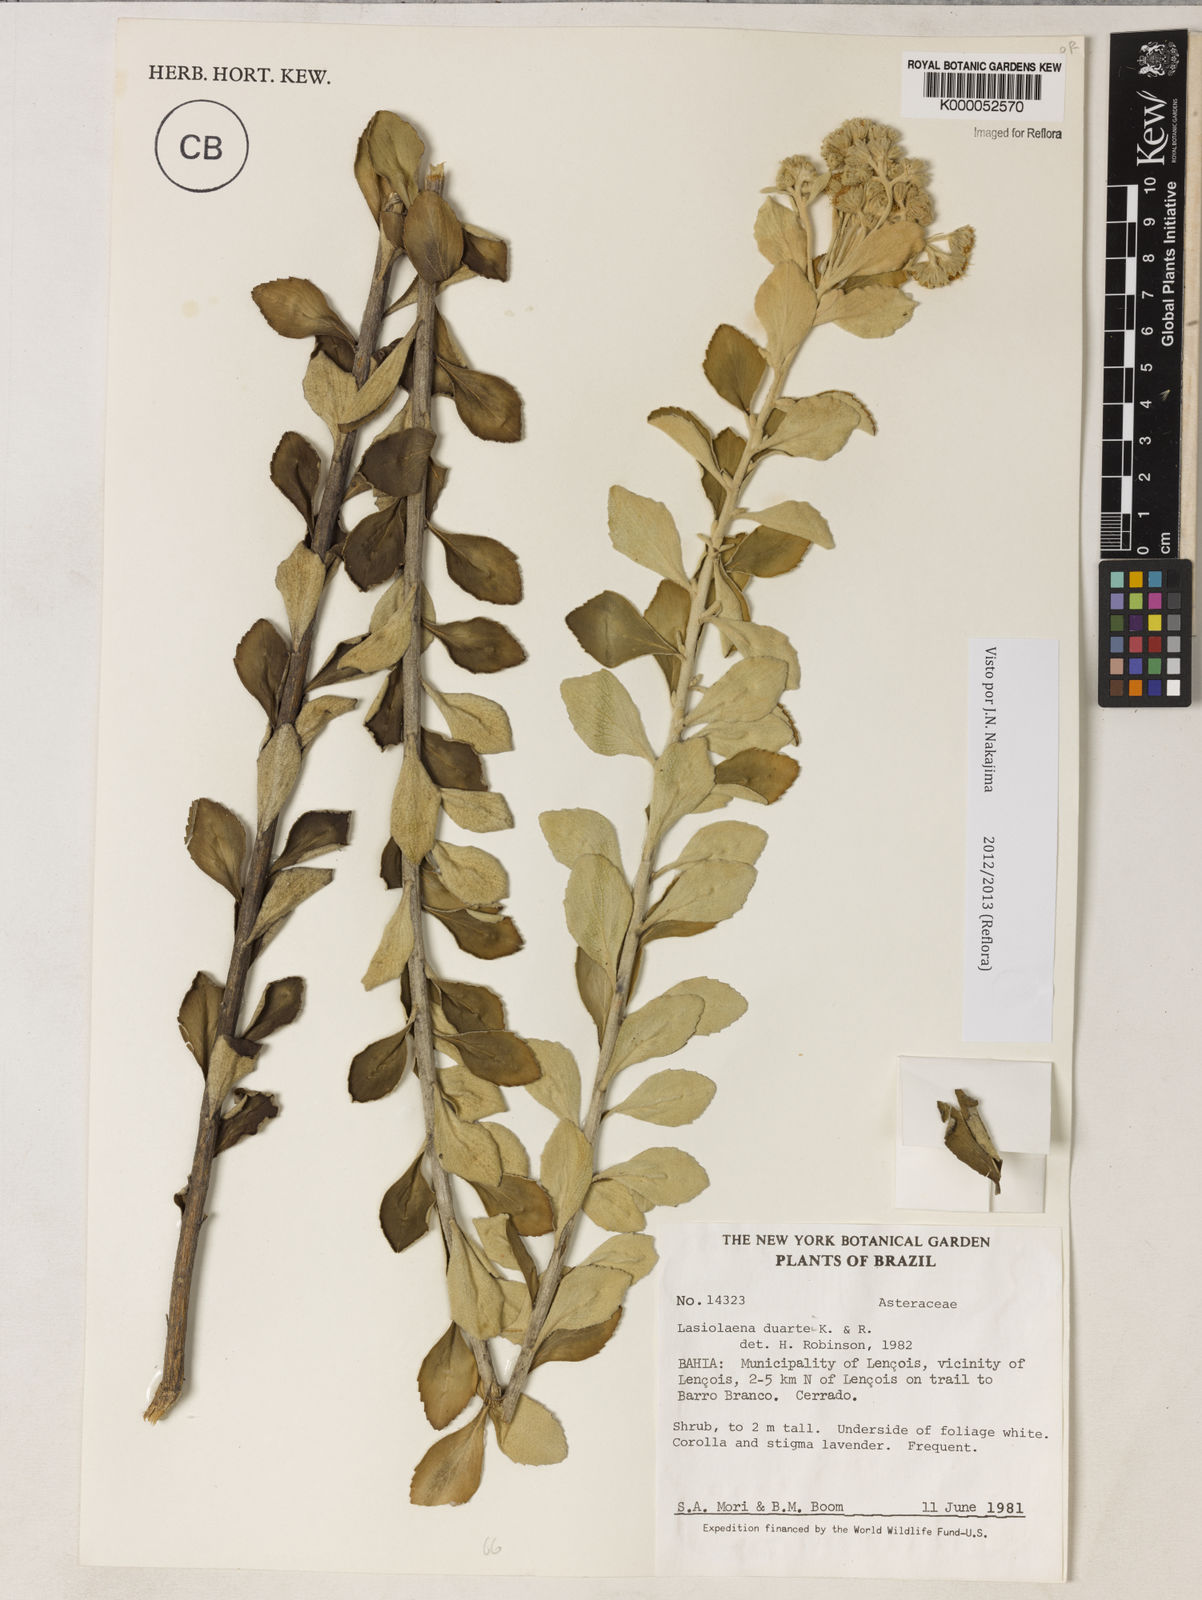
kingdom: Plantae
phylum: Tracheophyta
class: Magnoliopsida
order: Asterales
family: Asteraceae
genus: Lasiolaena
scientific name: Lasiolaena duartei
